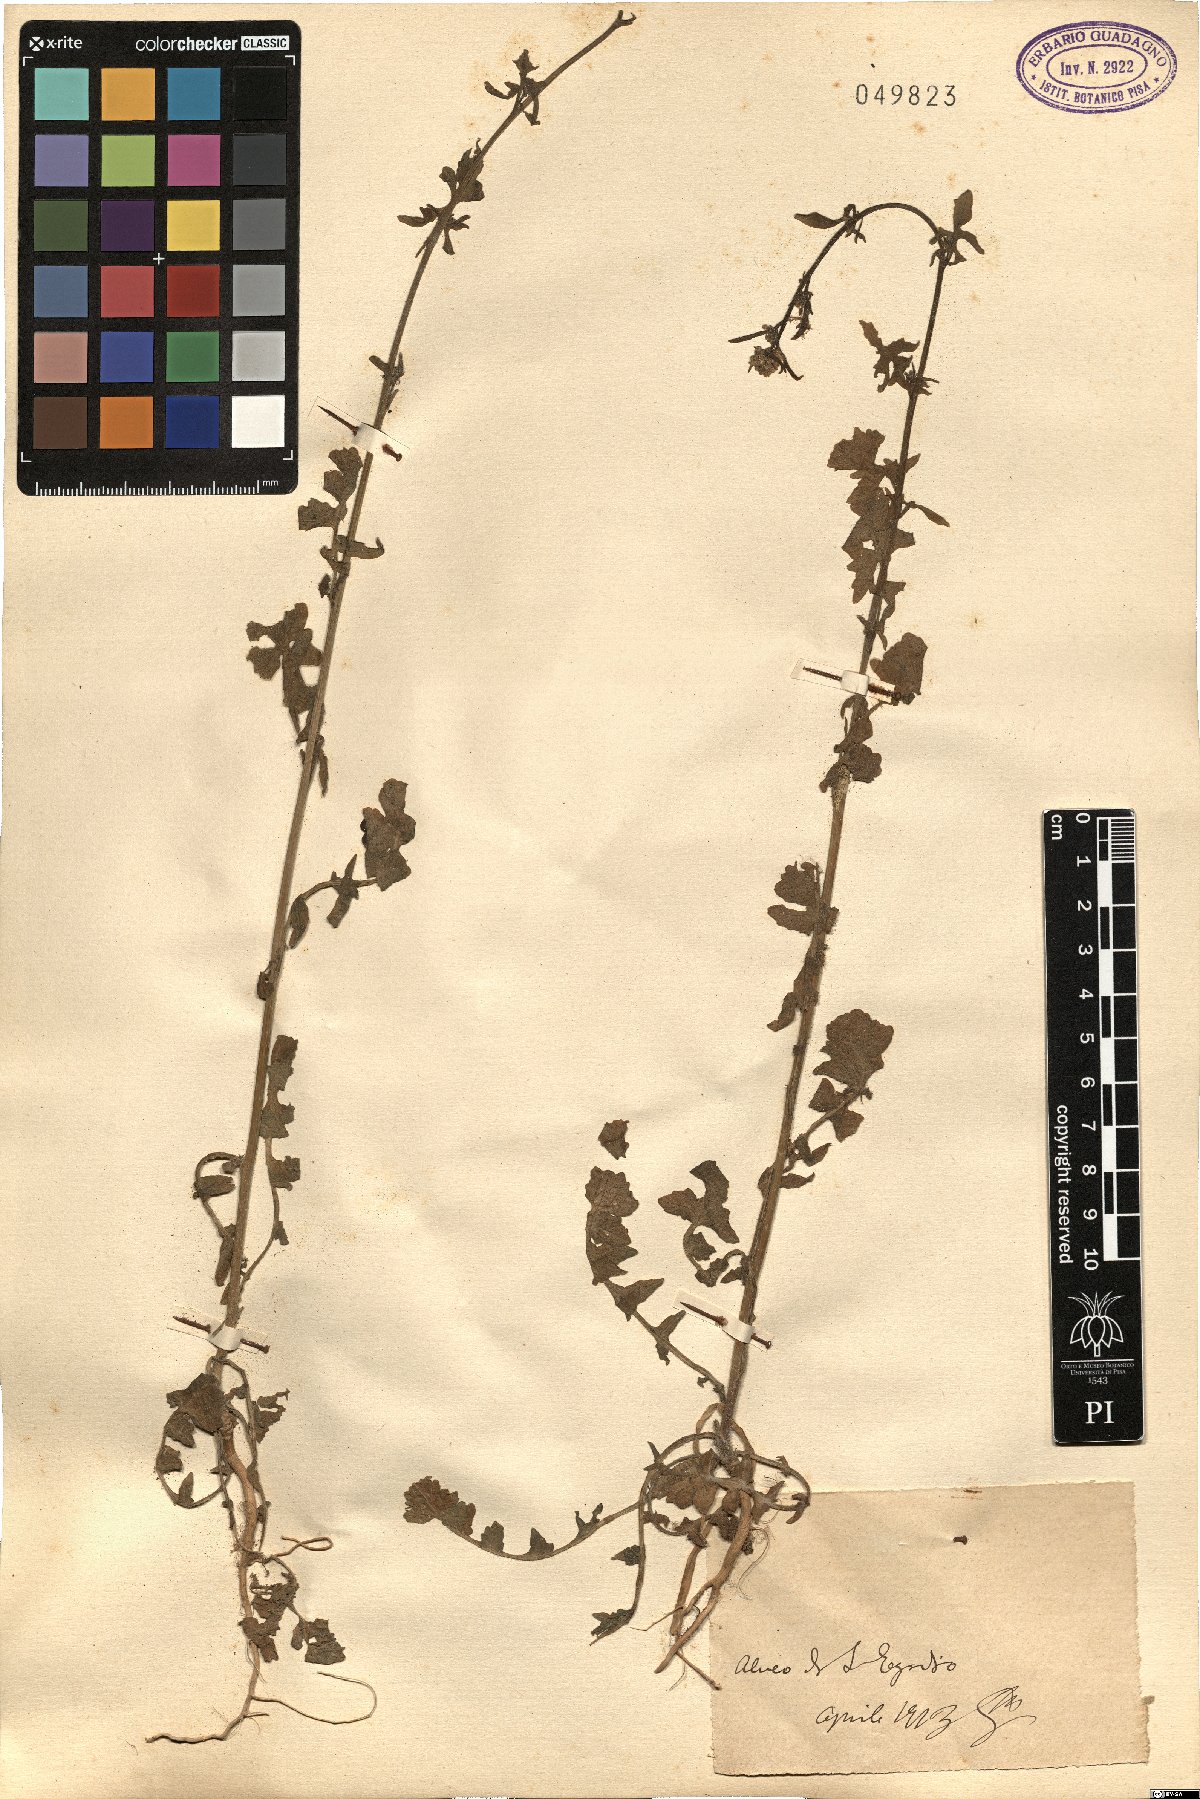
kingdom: Plantae
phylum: Tracheophyta
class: Magnoliopsida
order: Brassicales
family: Brassicaceae
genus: Sisymbrium
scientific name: Sisymbrium
